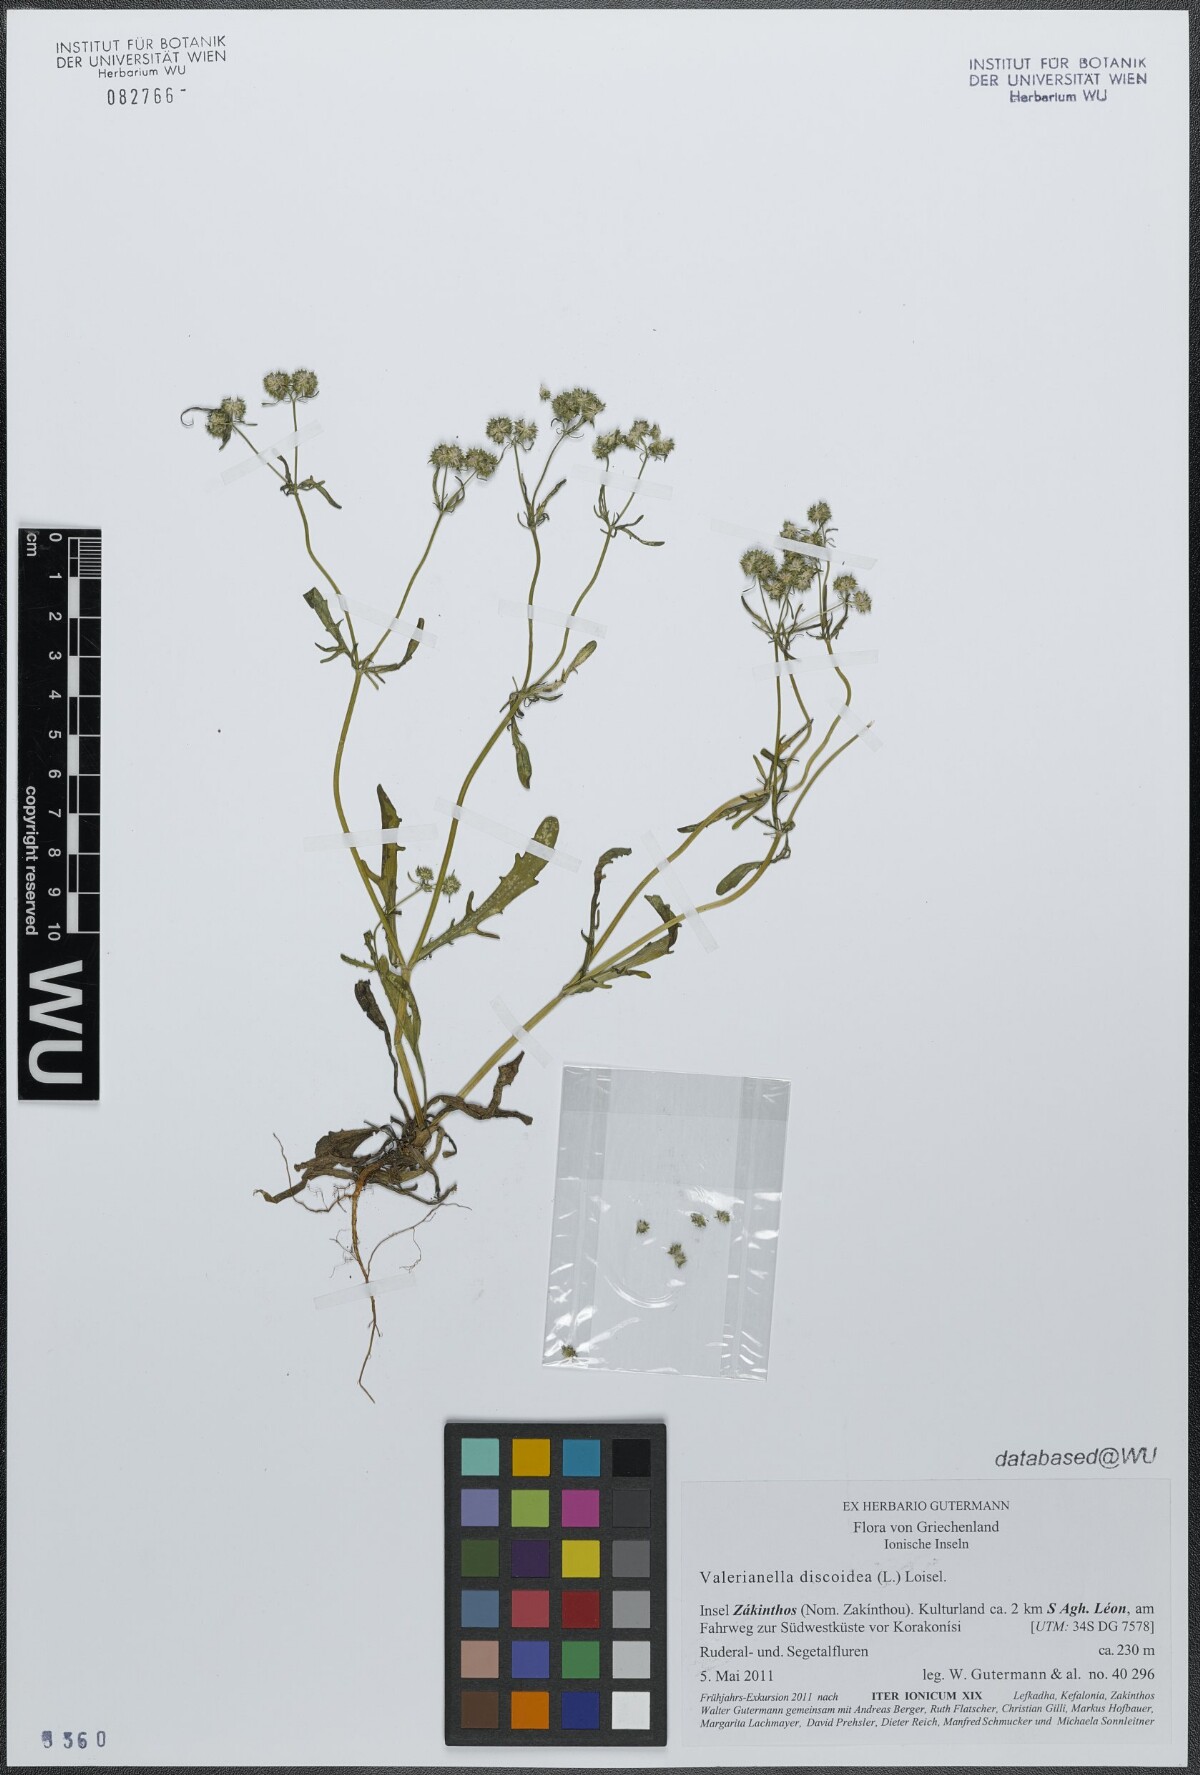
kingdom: Plantae
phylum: Tracheophyta
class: Magnoliopsida
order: Dipsacales
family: Caprifoliaceae
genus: Valerianella
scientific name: Valerianella discoidea
